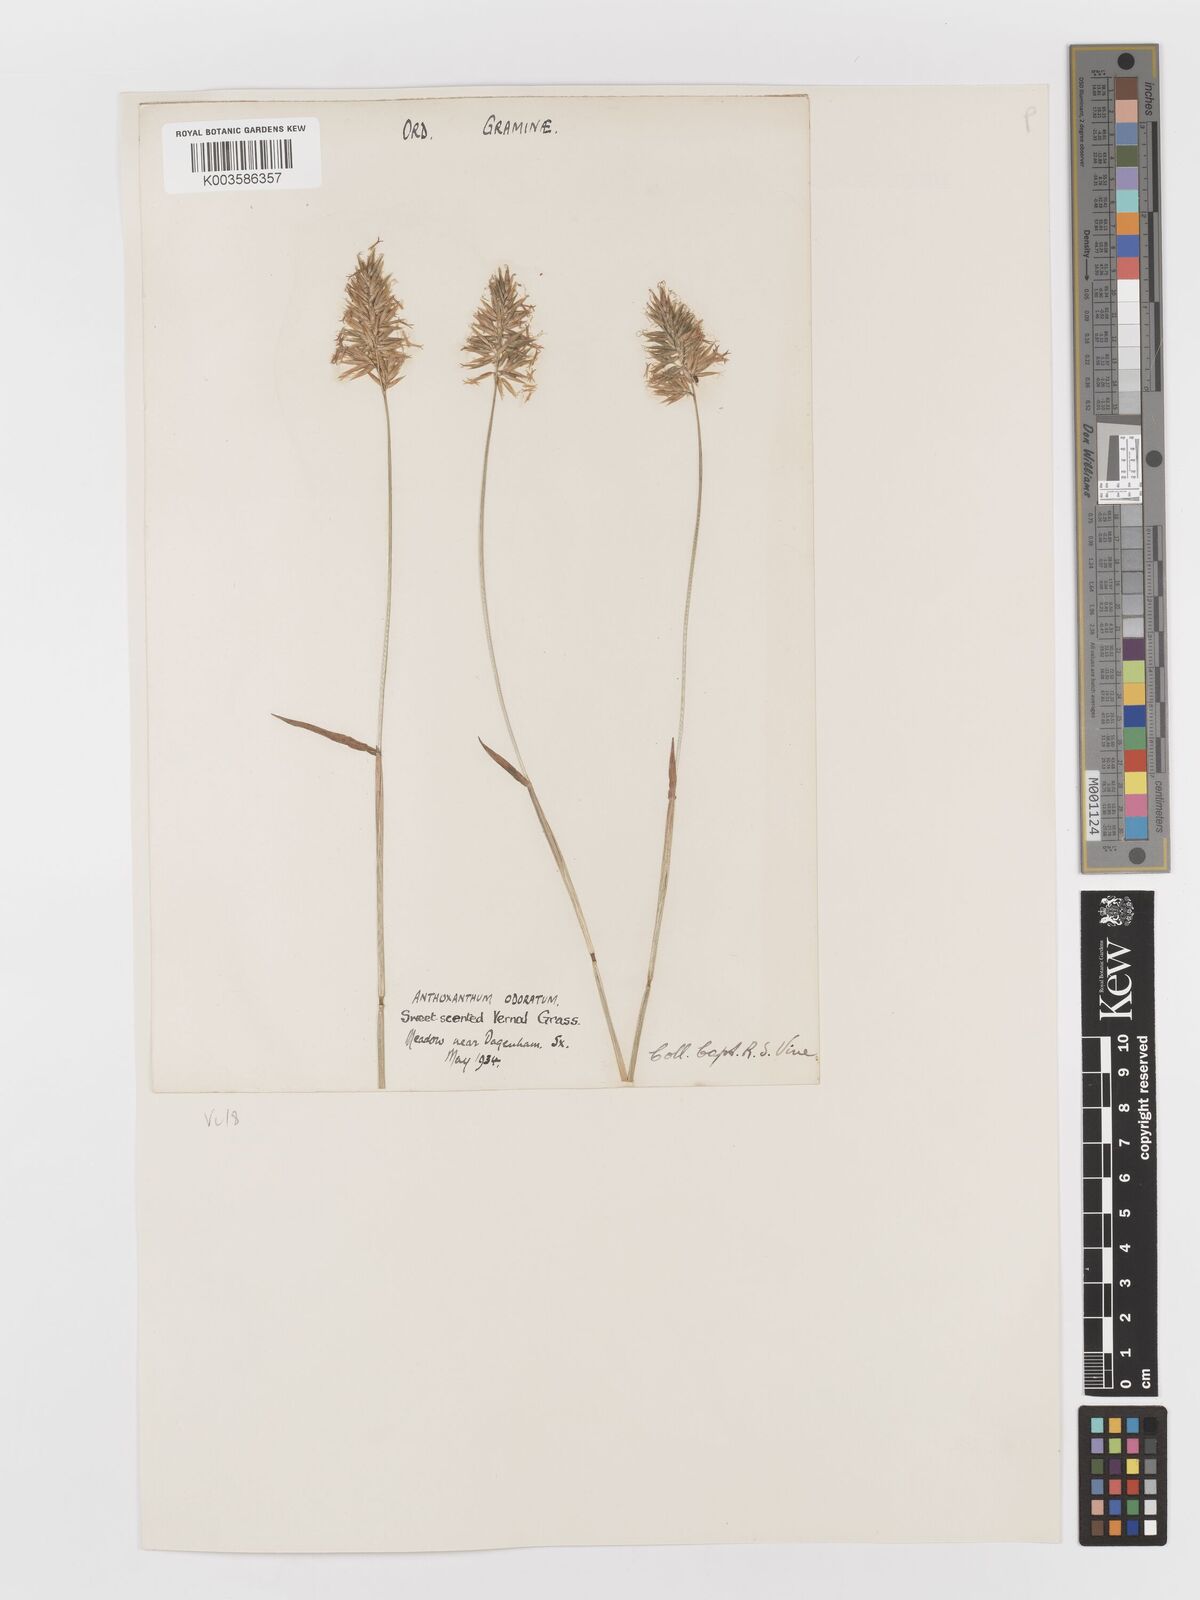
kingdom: Plantae
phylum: Tracheophyta
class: Liliopsida
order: Poales
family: Poaceae
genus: Anthoxanthum
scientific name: Anthoxanthum odoratum
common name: Sweet vernalgrass
